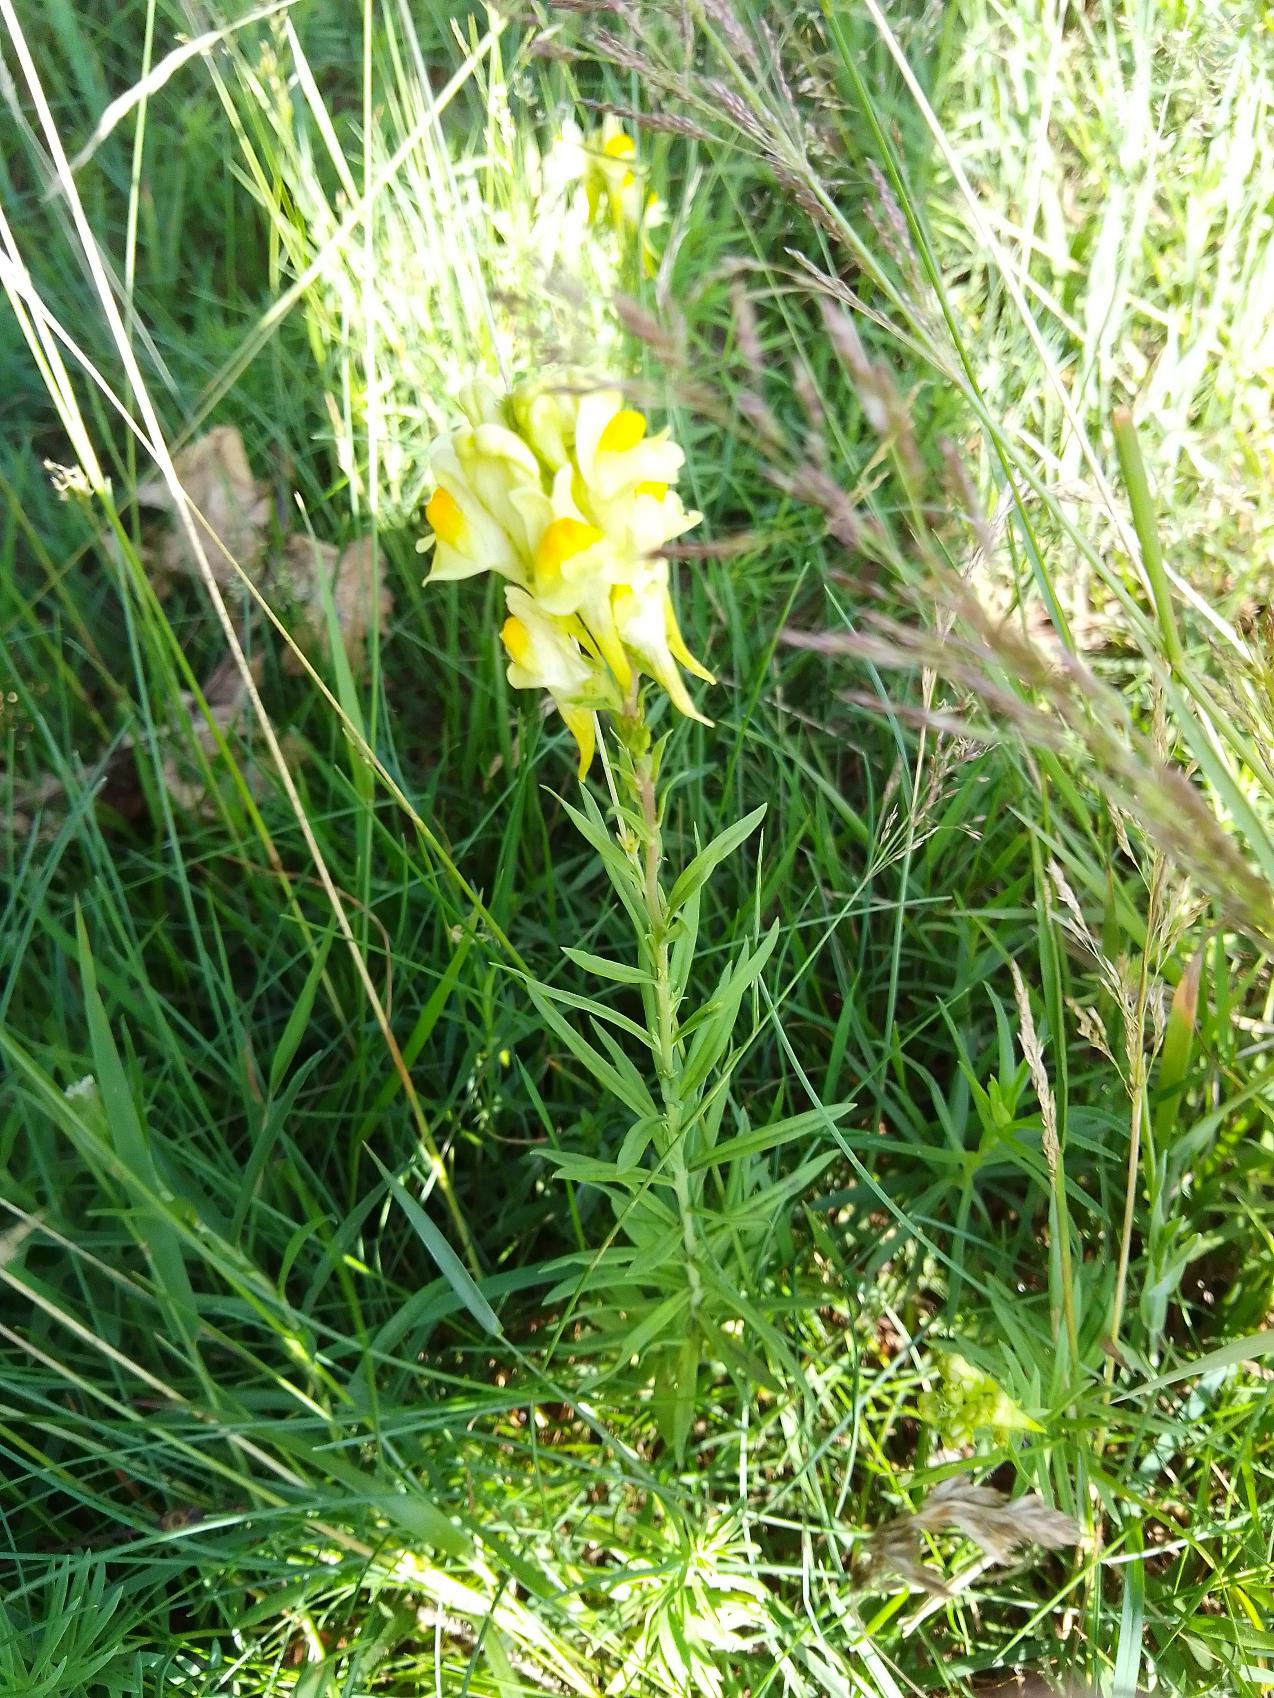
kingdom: Plantae
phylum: Tracheophyta
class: Magnoliopsida
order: Lamiales
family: Plantaginaceae
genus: Linaria
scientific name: Linaria vulgaris
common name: Almindelig torskemund
